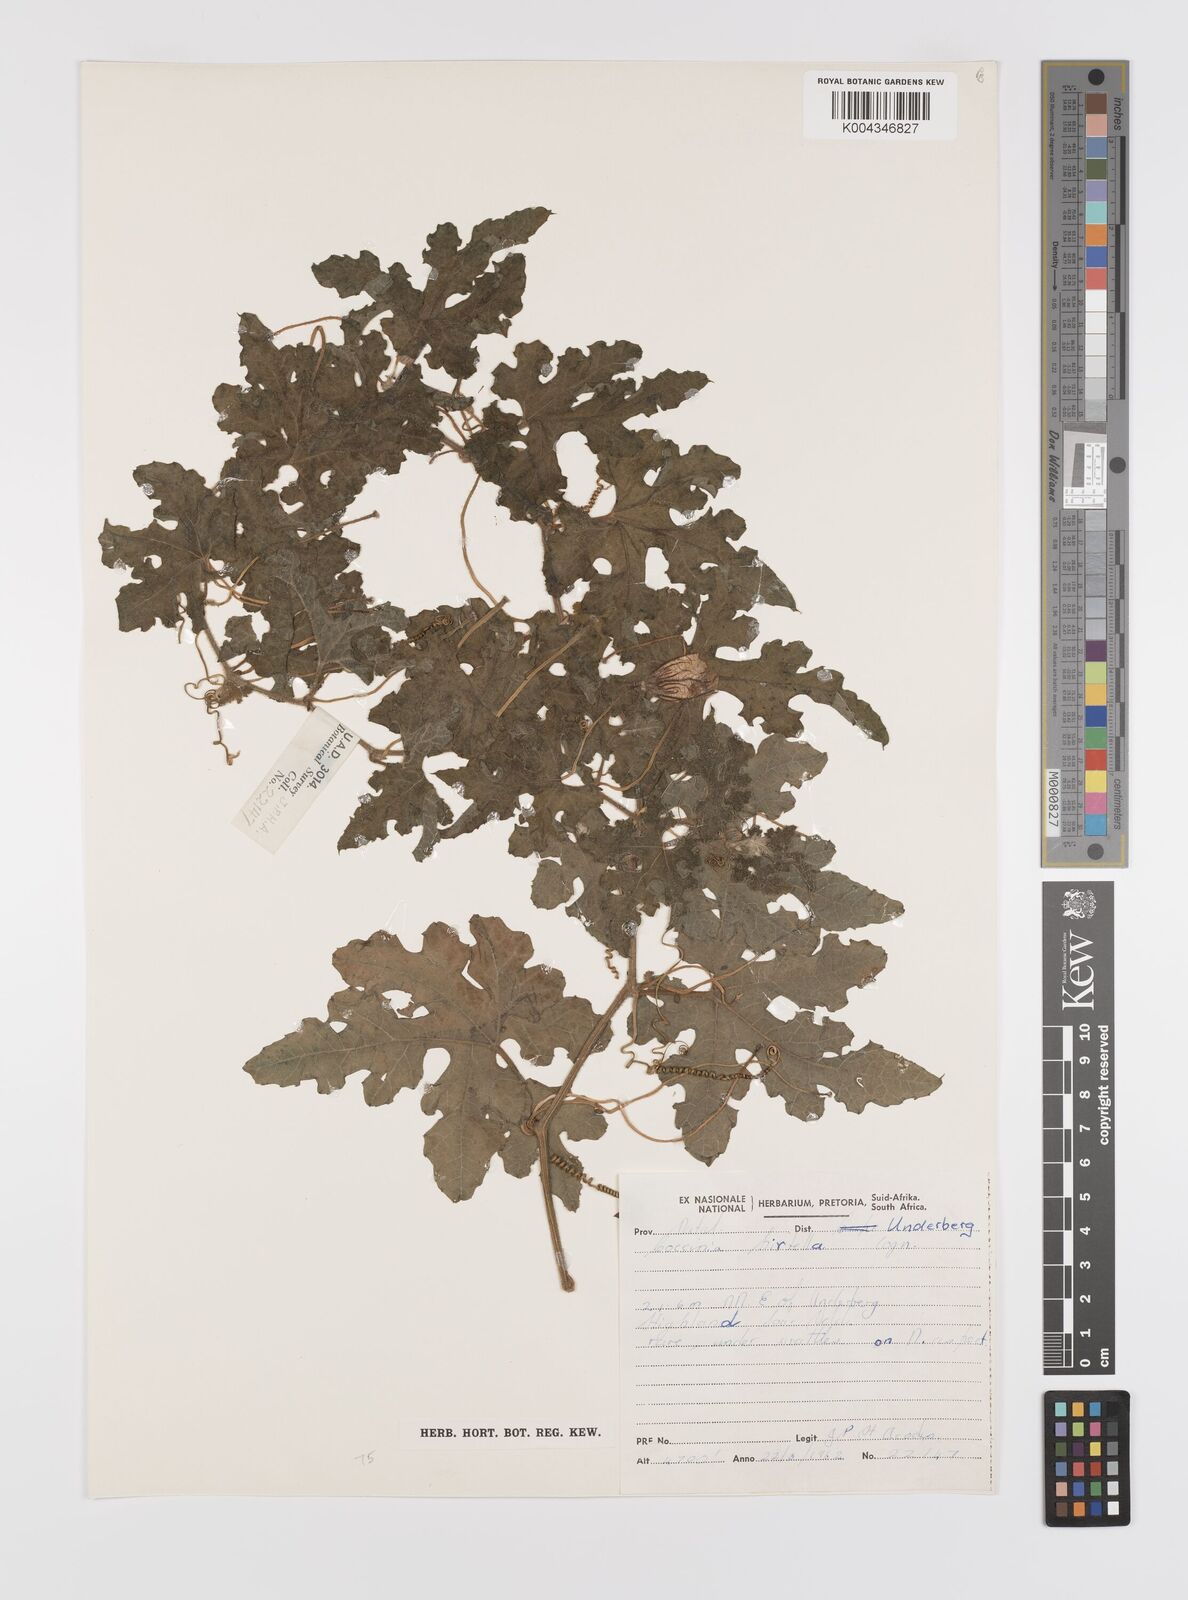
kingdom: Plantae
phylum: Tracheophyta
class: Magnoliopsida
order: Cucurbitales
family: Cucurbitaceae
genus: Coccinia
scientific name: Coccinia hirtella
